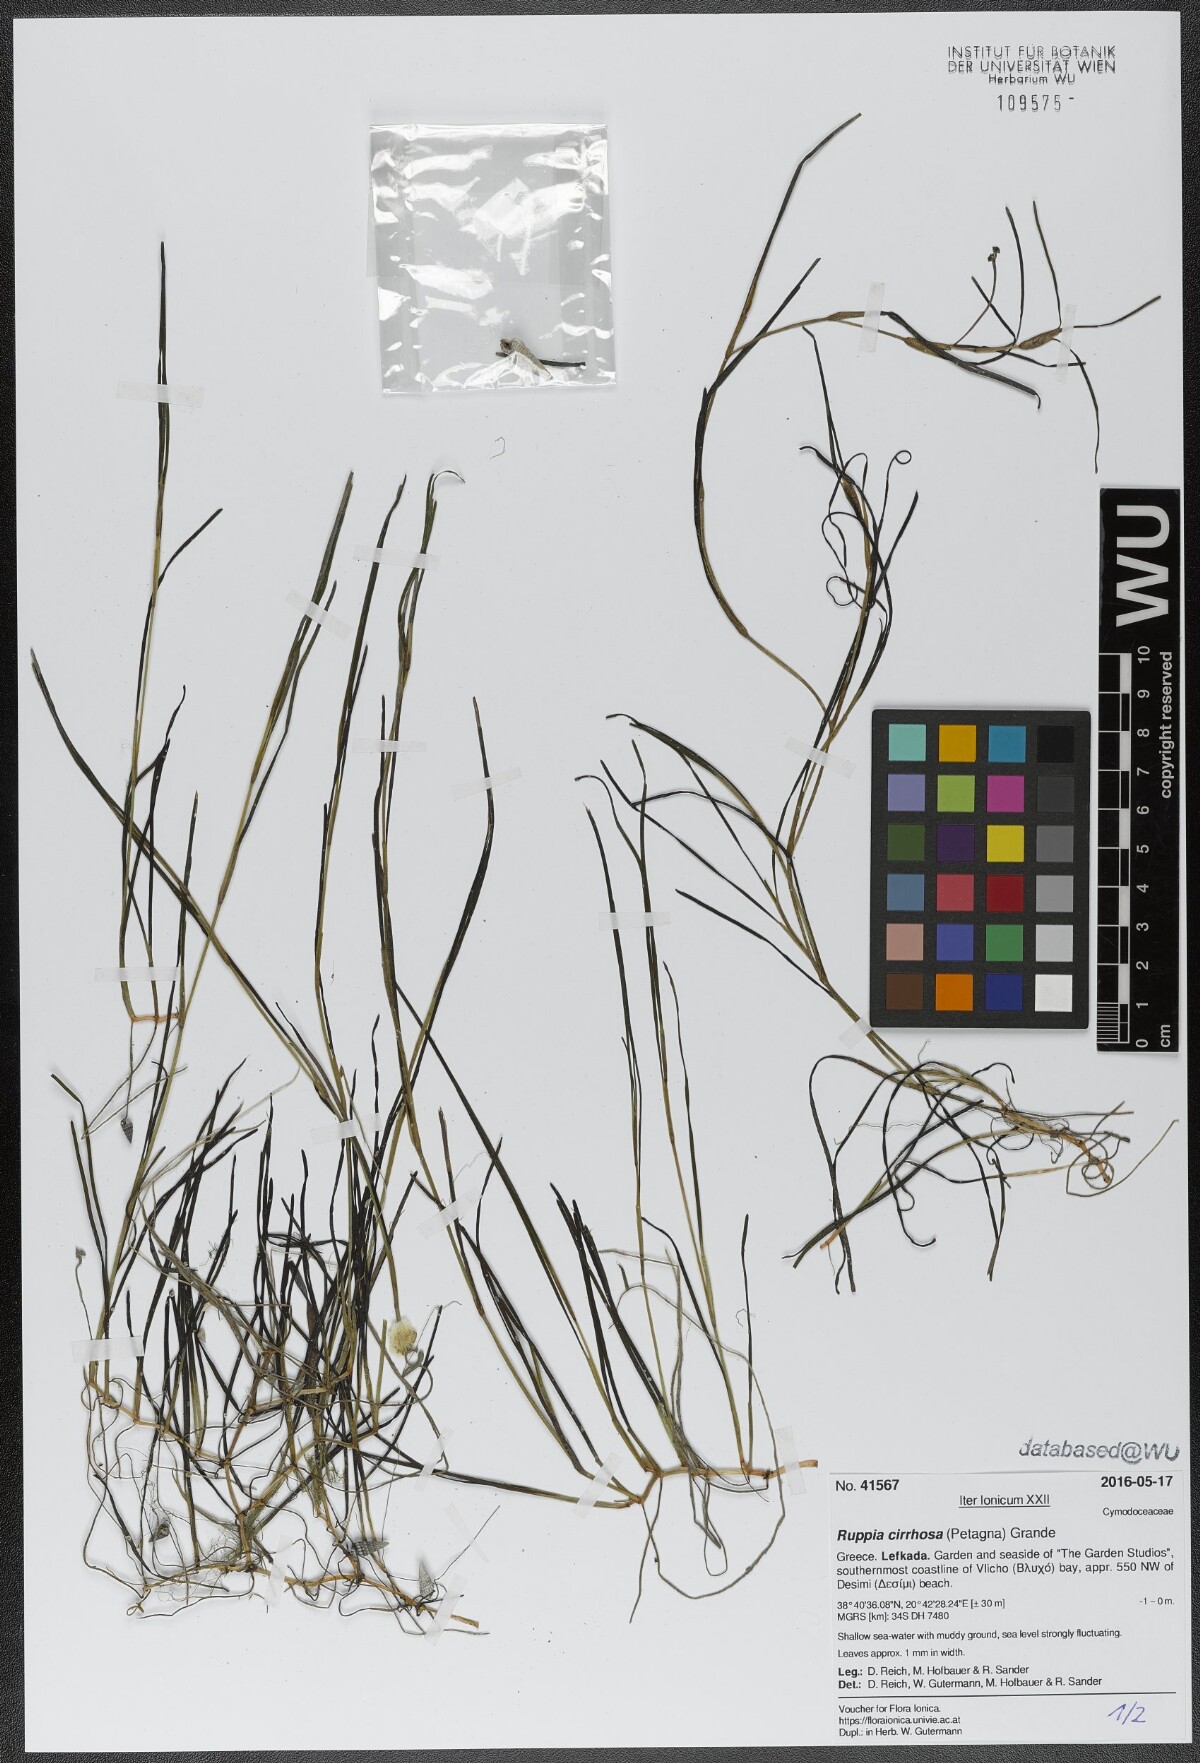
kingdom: Plantae
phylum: Tracheophyta
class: Liliopsida
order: Alismatales
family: Ruppiaceae
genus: Ruppia
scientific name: Ruppia cirrhosa
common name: Spiral tasselweed
